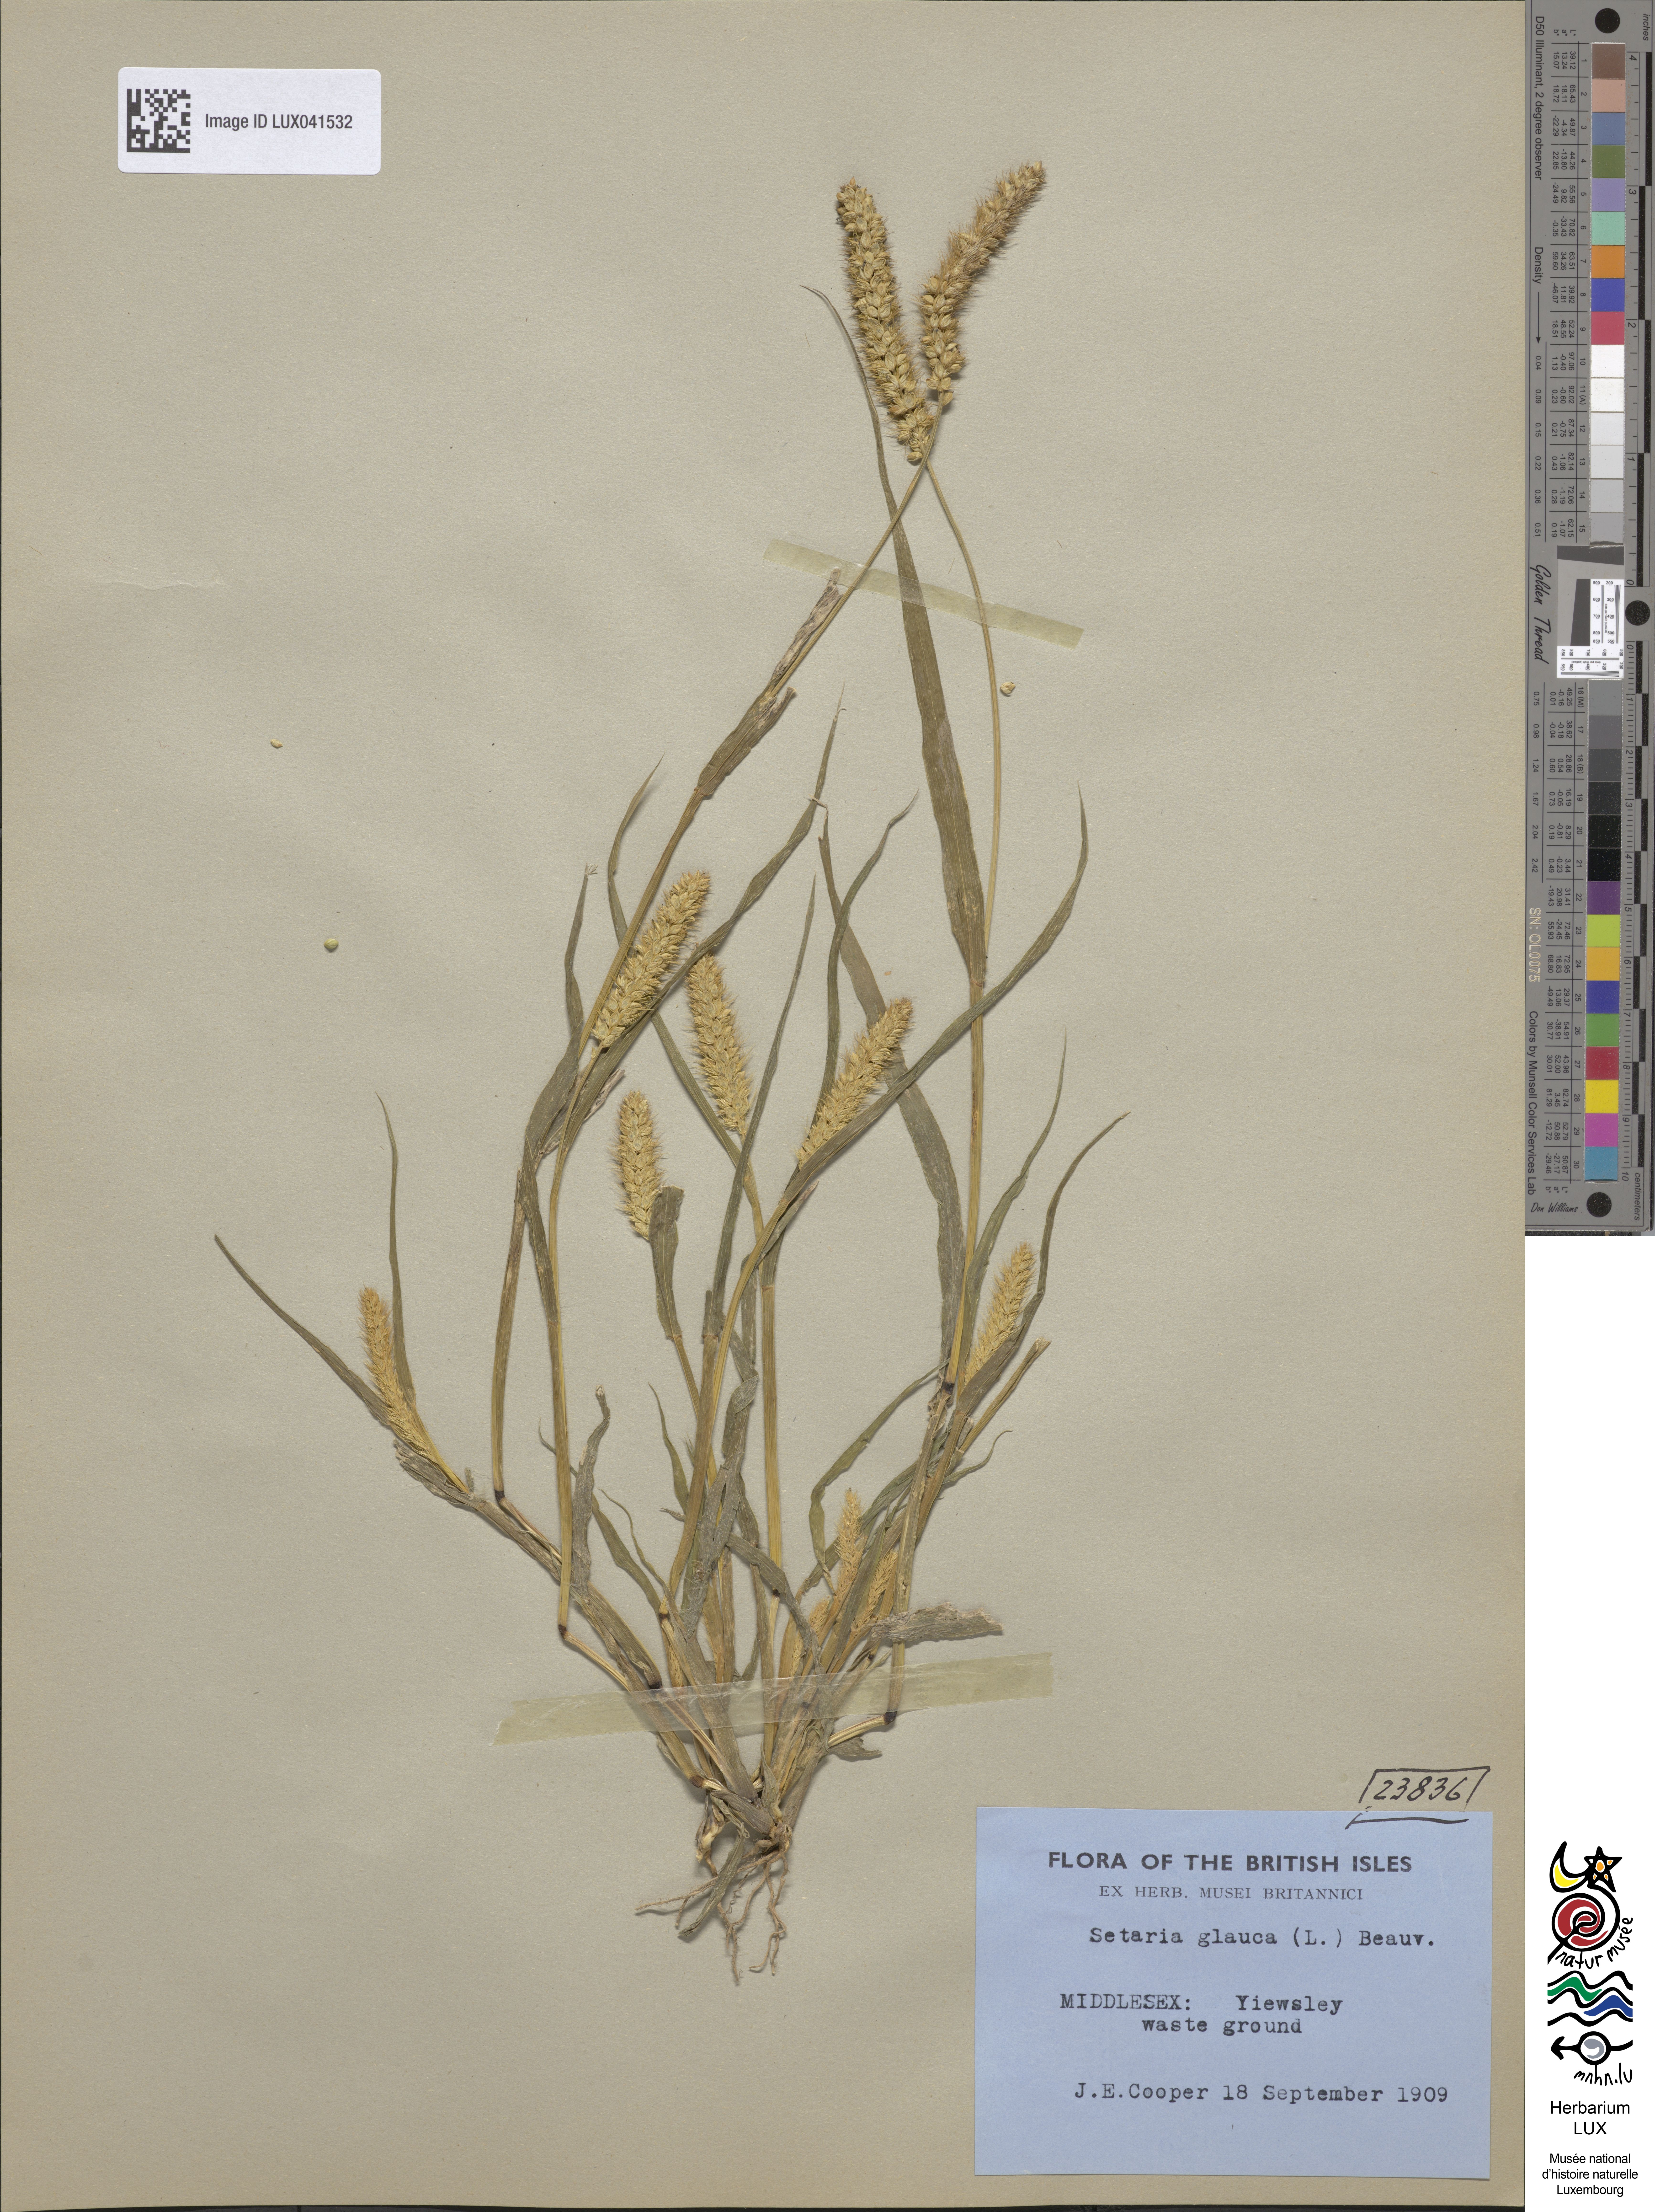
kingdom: Plantae
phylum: Tracheophyta
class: Liliopsida
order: Poales
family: Poaceae
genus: Cenchrus
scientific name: Cenchrus americanus
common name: Pearl millet
